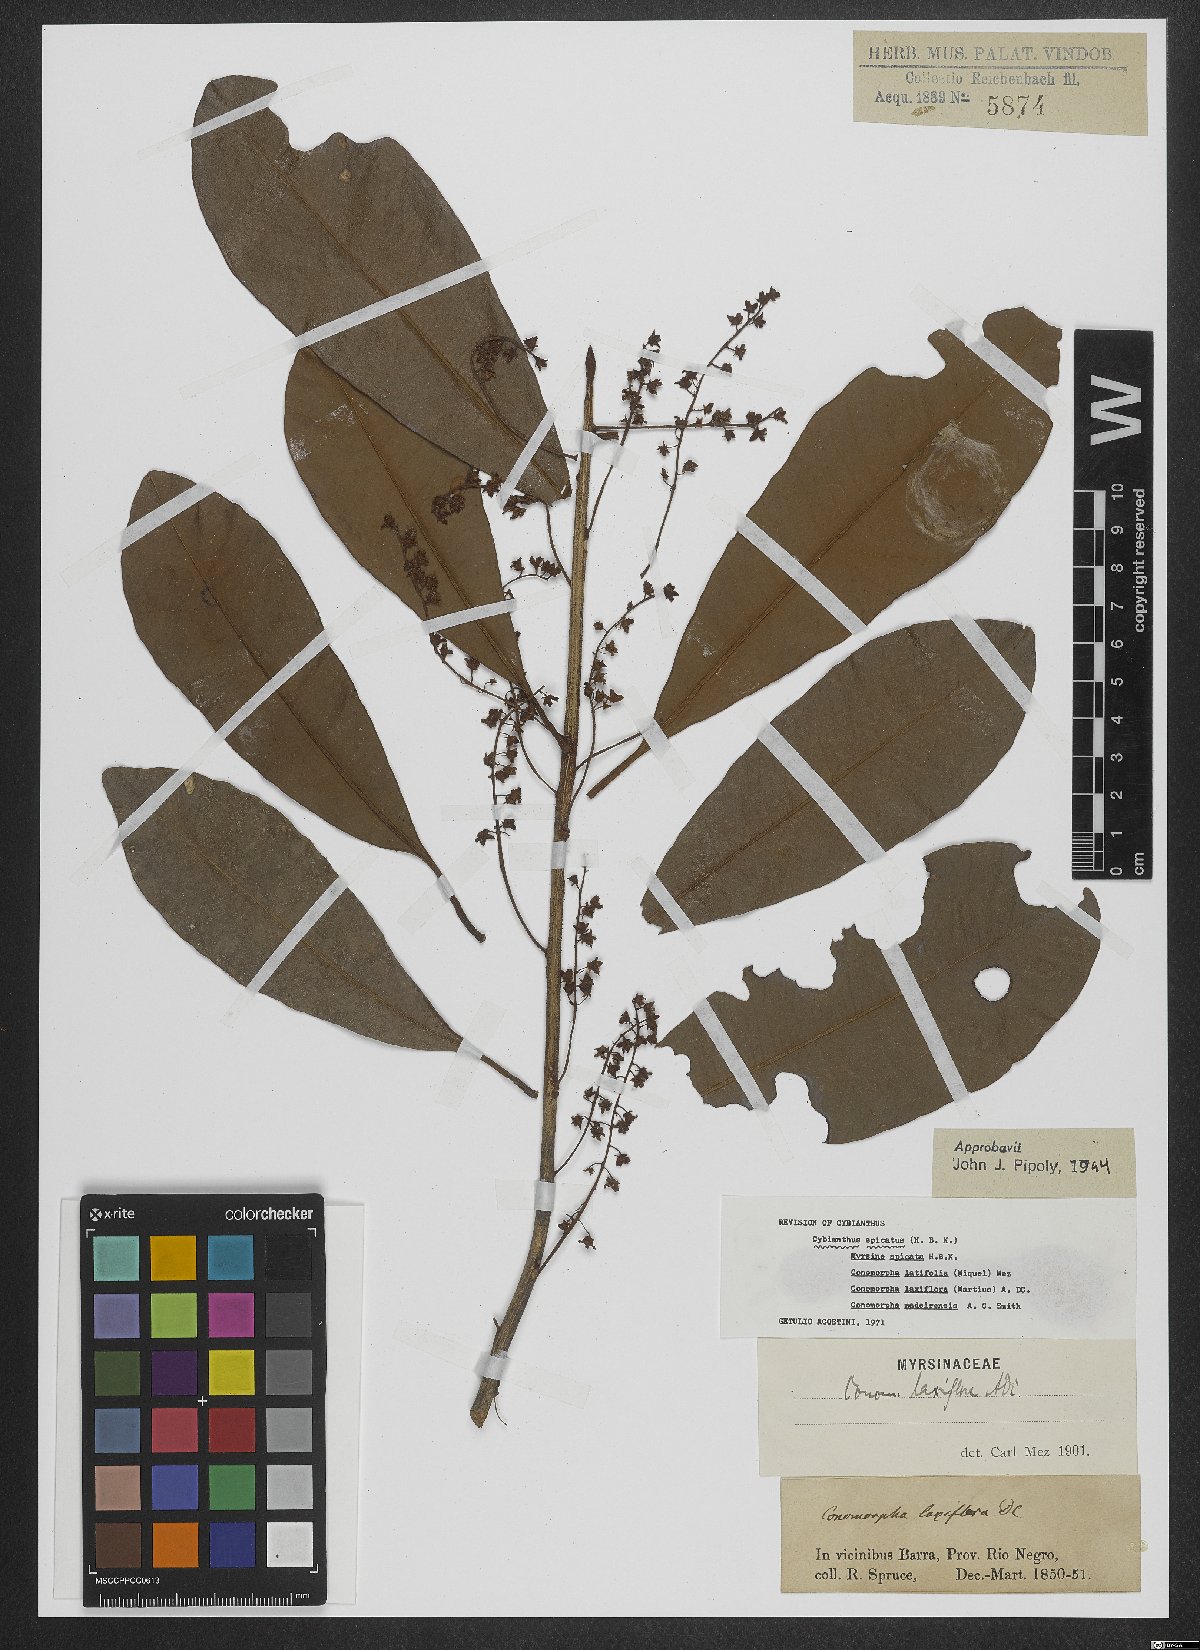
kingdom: Plantae
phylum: Tracheophyta
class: Magnoliopsida
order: Ericales
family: Primulaceae
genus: Cybianthus
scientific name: Cybianthus spicatus
